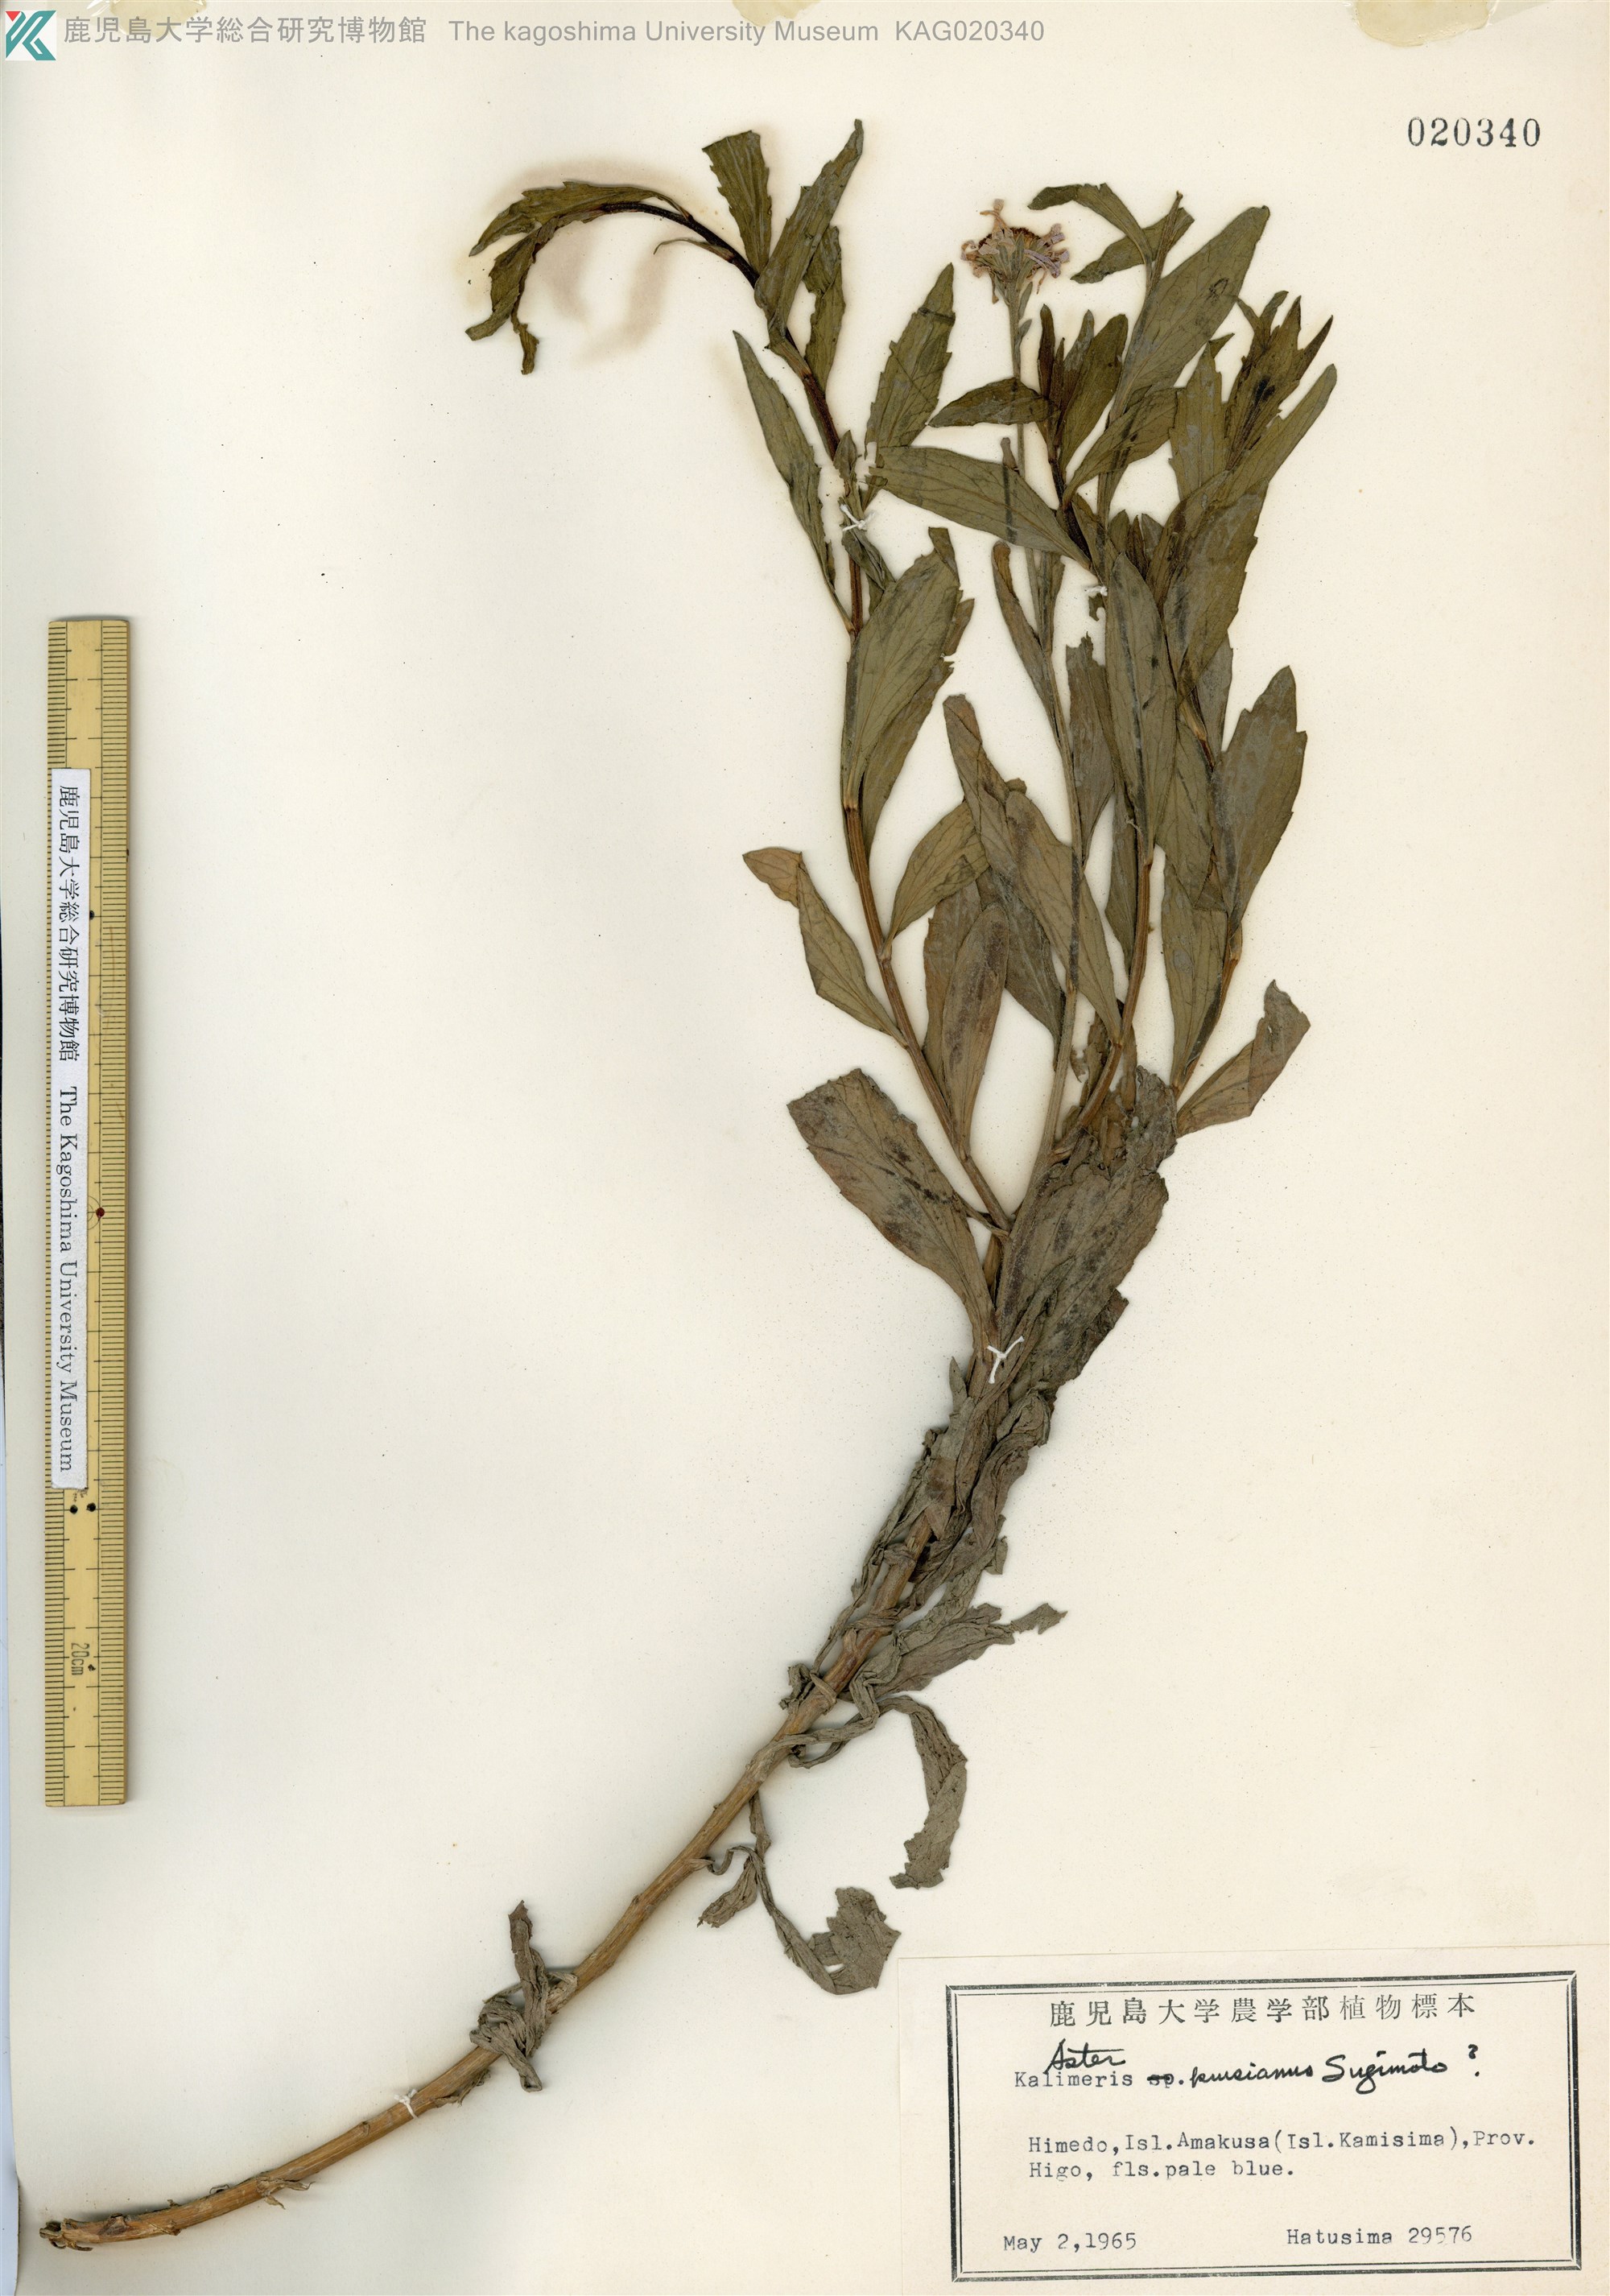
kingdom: Plantae
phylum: Tracheophyta
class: Magnoliopsida
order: Asterales
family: Asteraceae
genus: Aster
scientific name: Aster
